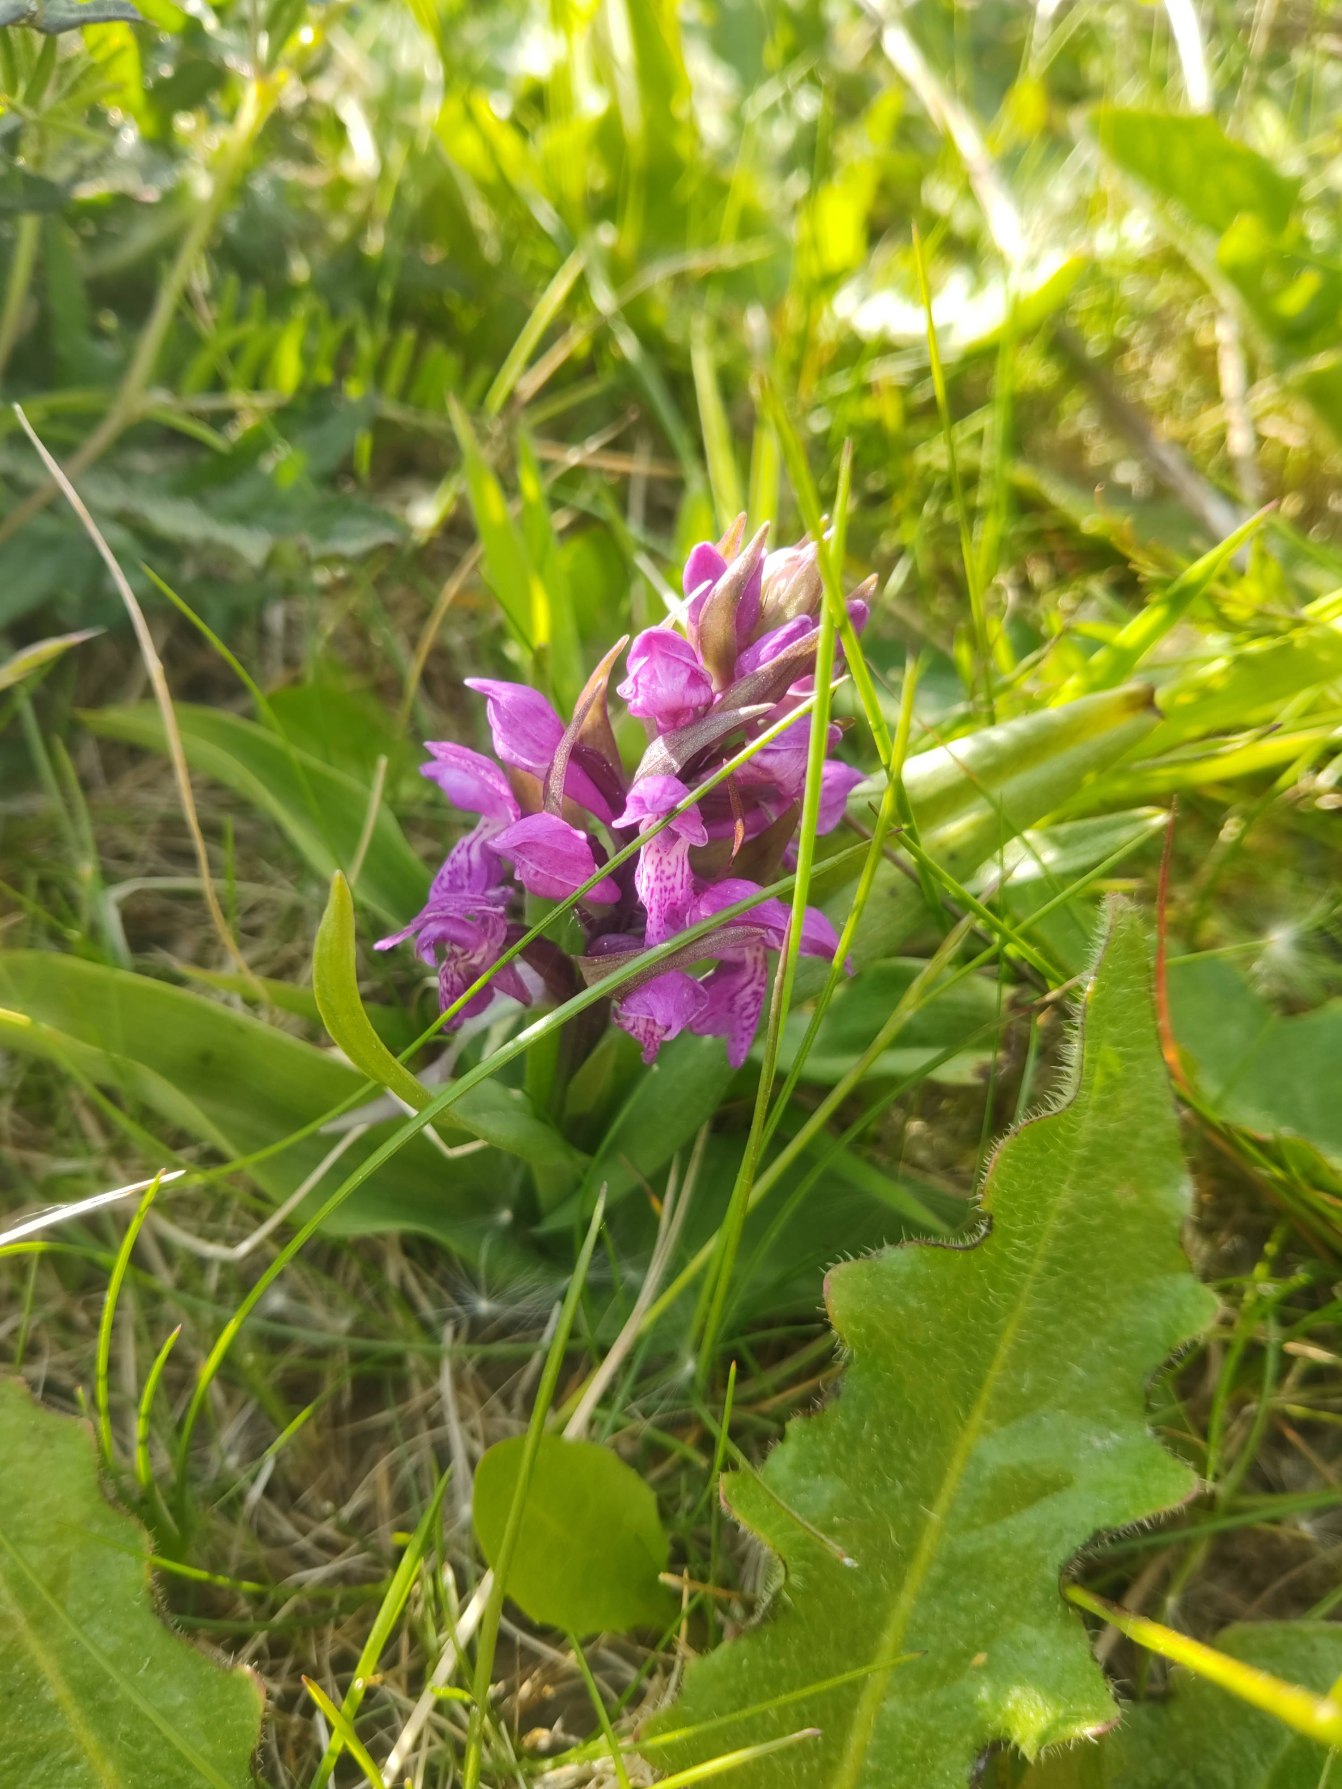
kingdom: Plantae
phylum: Tracheophyta
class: Liliopsida
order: Asparagales
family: Orchidaceae
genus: Dactylorhiza
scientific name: Dactylorhiza majalis
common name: Maj-gøgeurt
